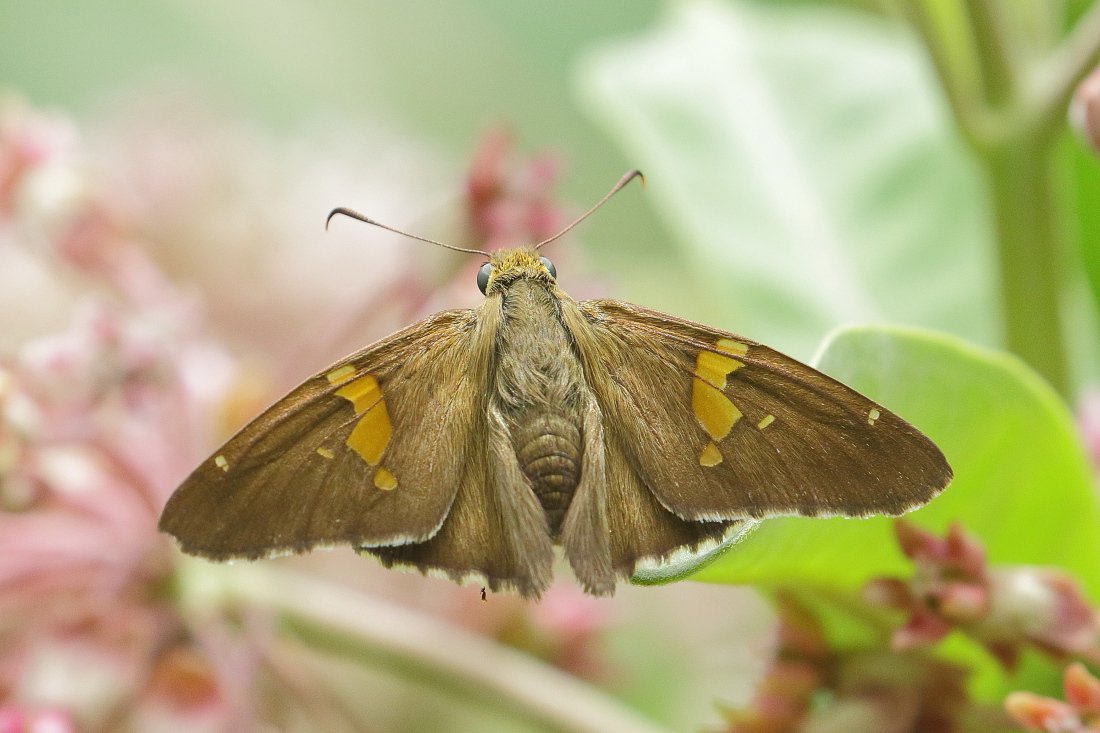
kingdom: Animalia
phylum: Arthropoda
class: Insecta
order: Lepidoptera
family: Hesperiidae
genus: Epargyreus
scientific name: Epargyreus clarus
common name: Silver-spotted Skipper
